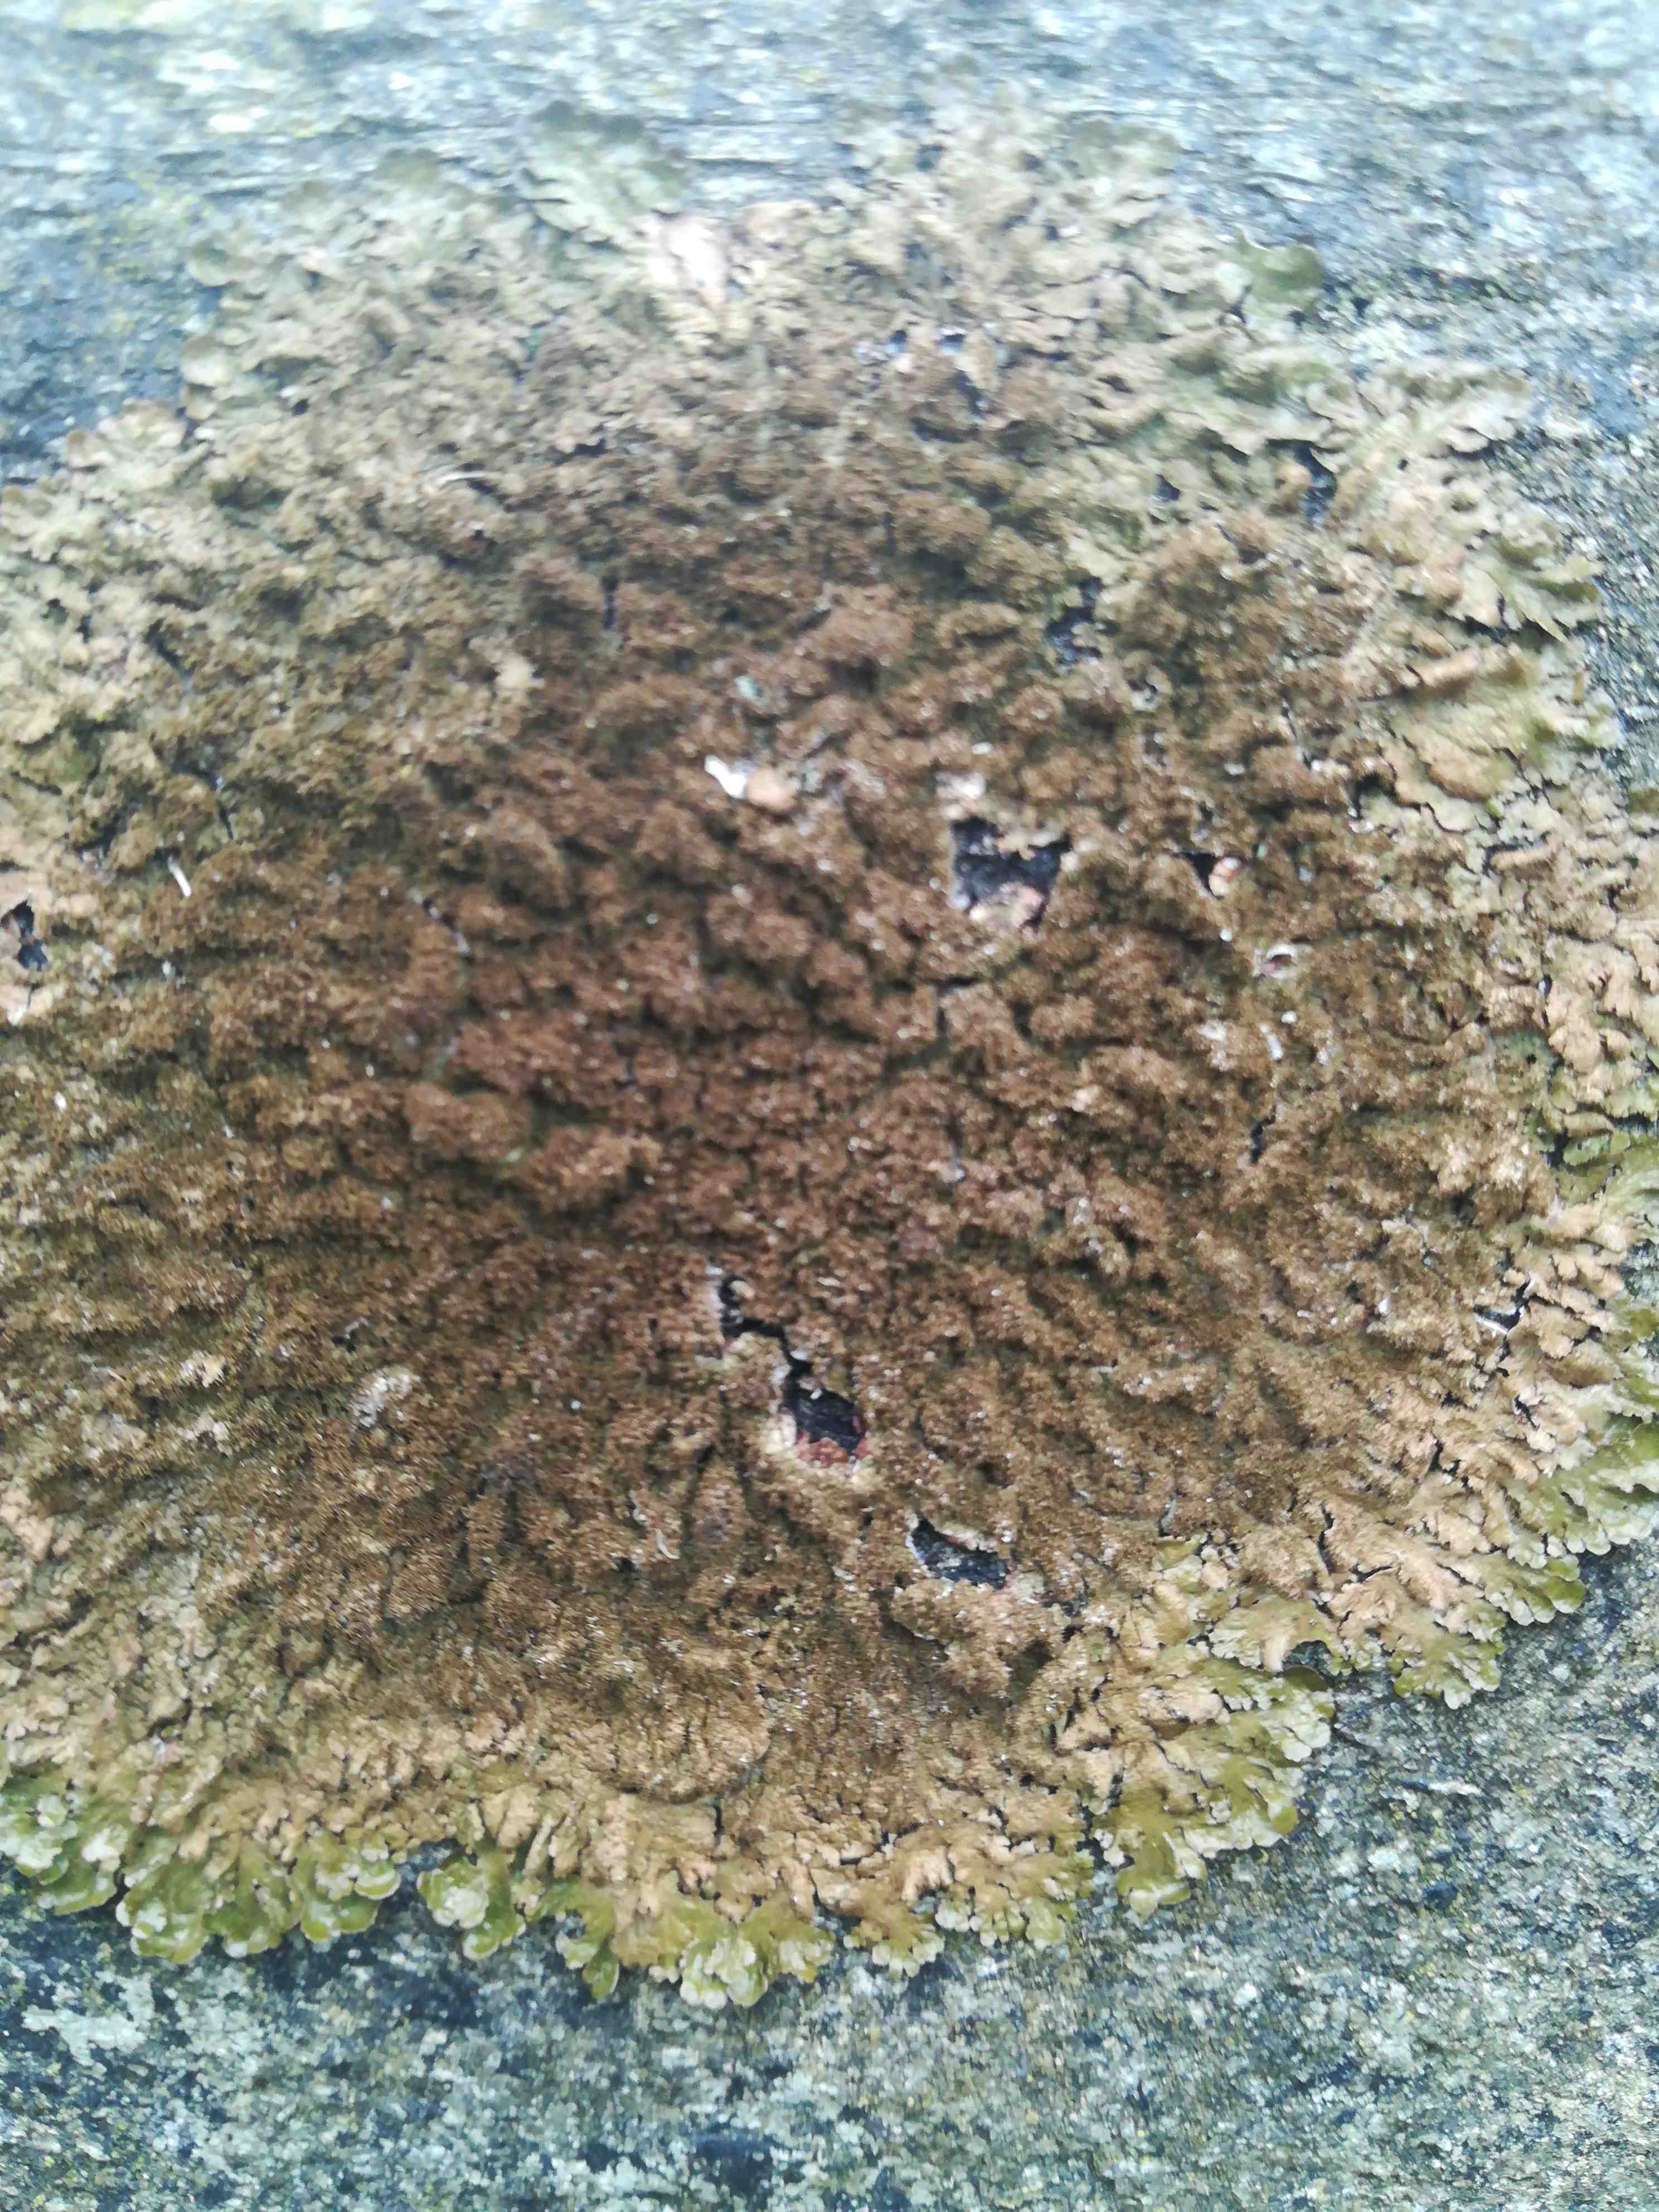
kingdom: Fungi
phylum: Ascomycota
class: Lecanoromycetes
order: Lecanorales
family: Parmeliaceae
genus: Melanelixia
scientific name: Melanelixia subaurifera
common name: guldpudret skållav
